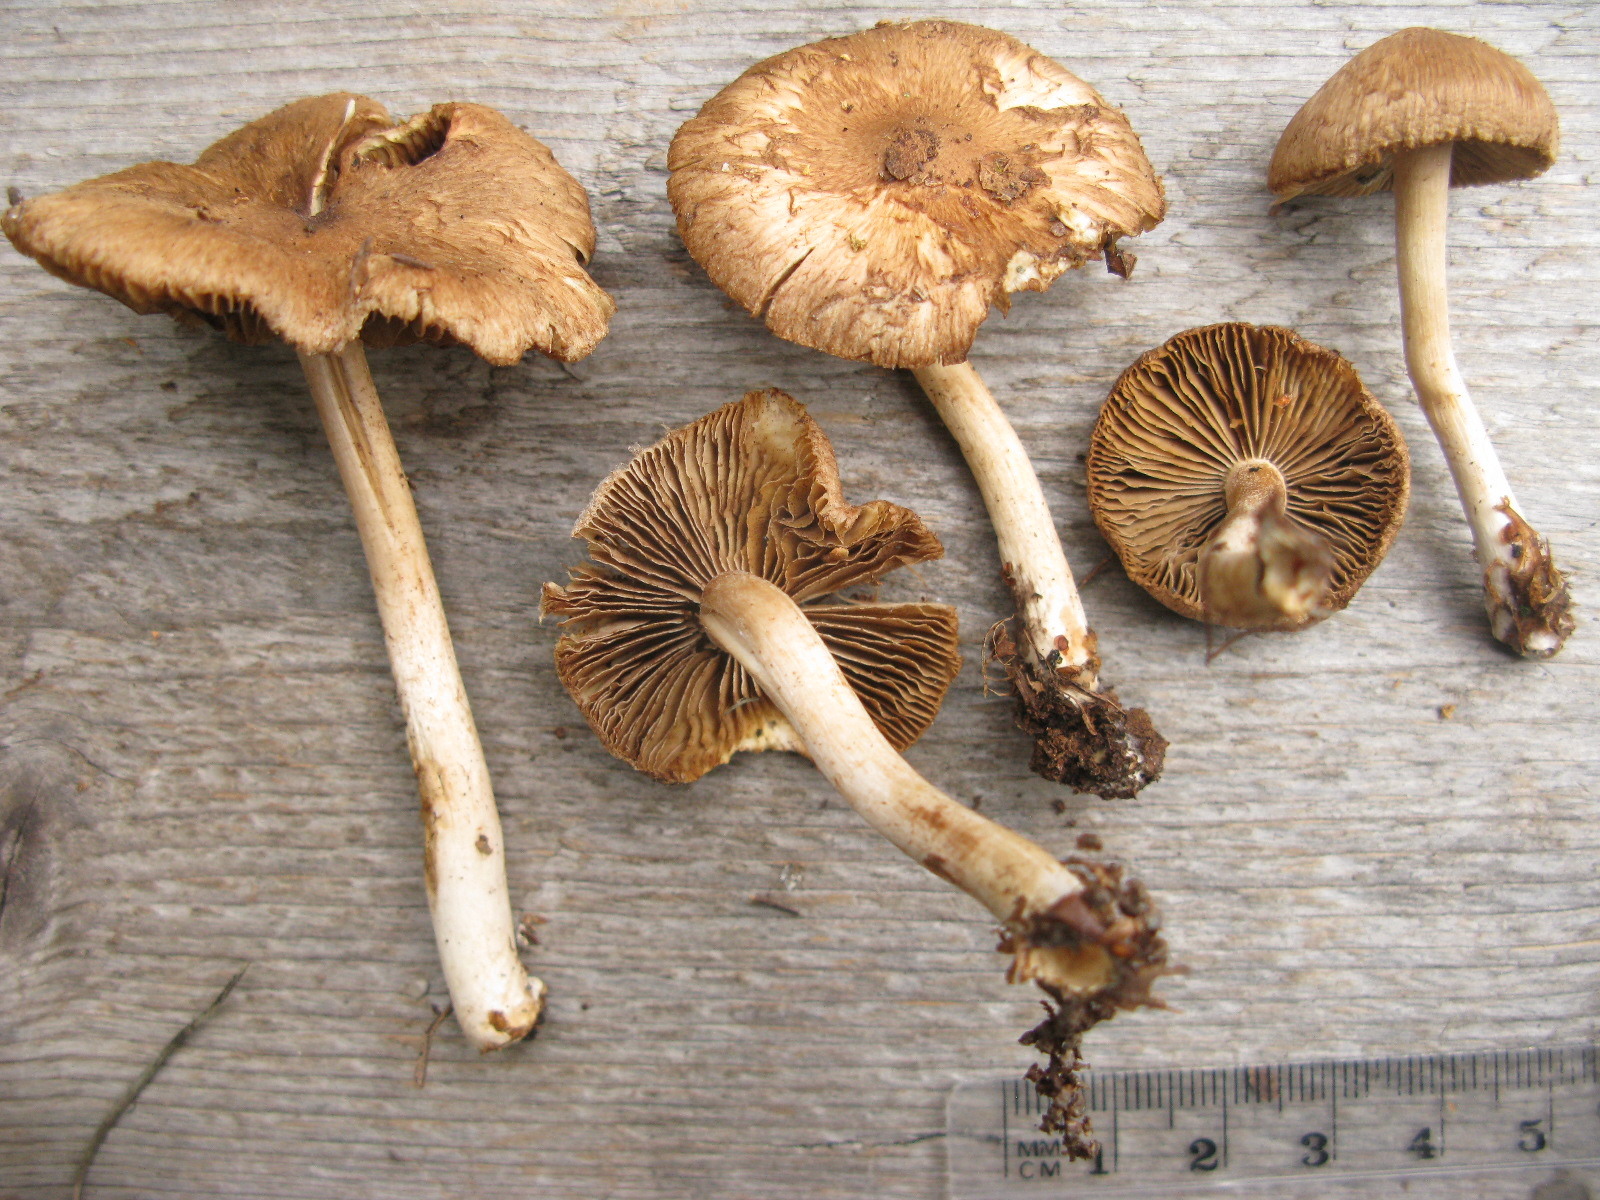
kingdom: Fungi
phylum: Basidiomycota
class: Agaricomycetes
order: Agaricales
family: Inocybaceae
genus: Inocybe
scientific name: Inocybe flocculosa
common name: Fleecy fibrecap
